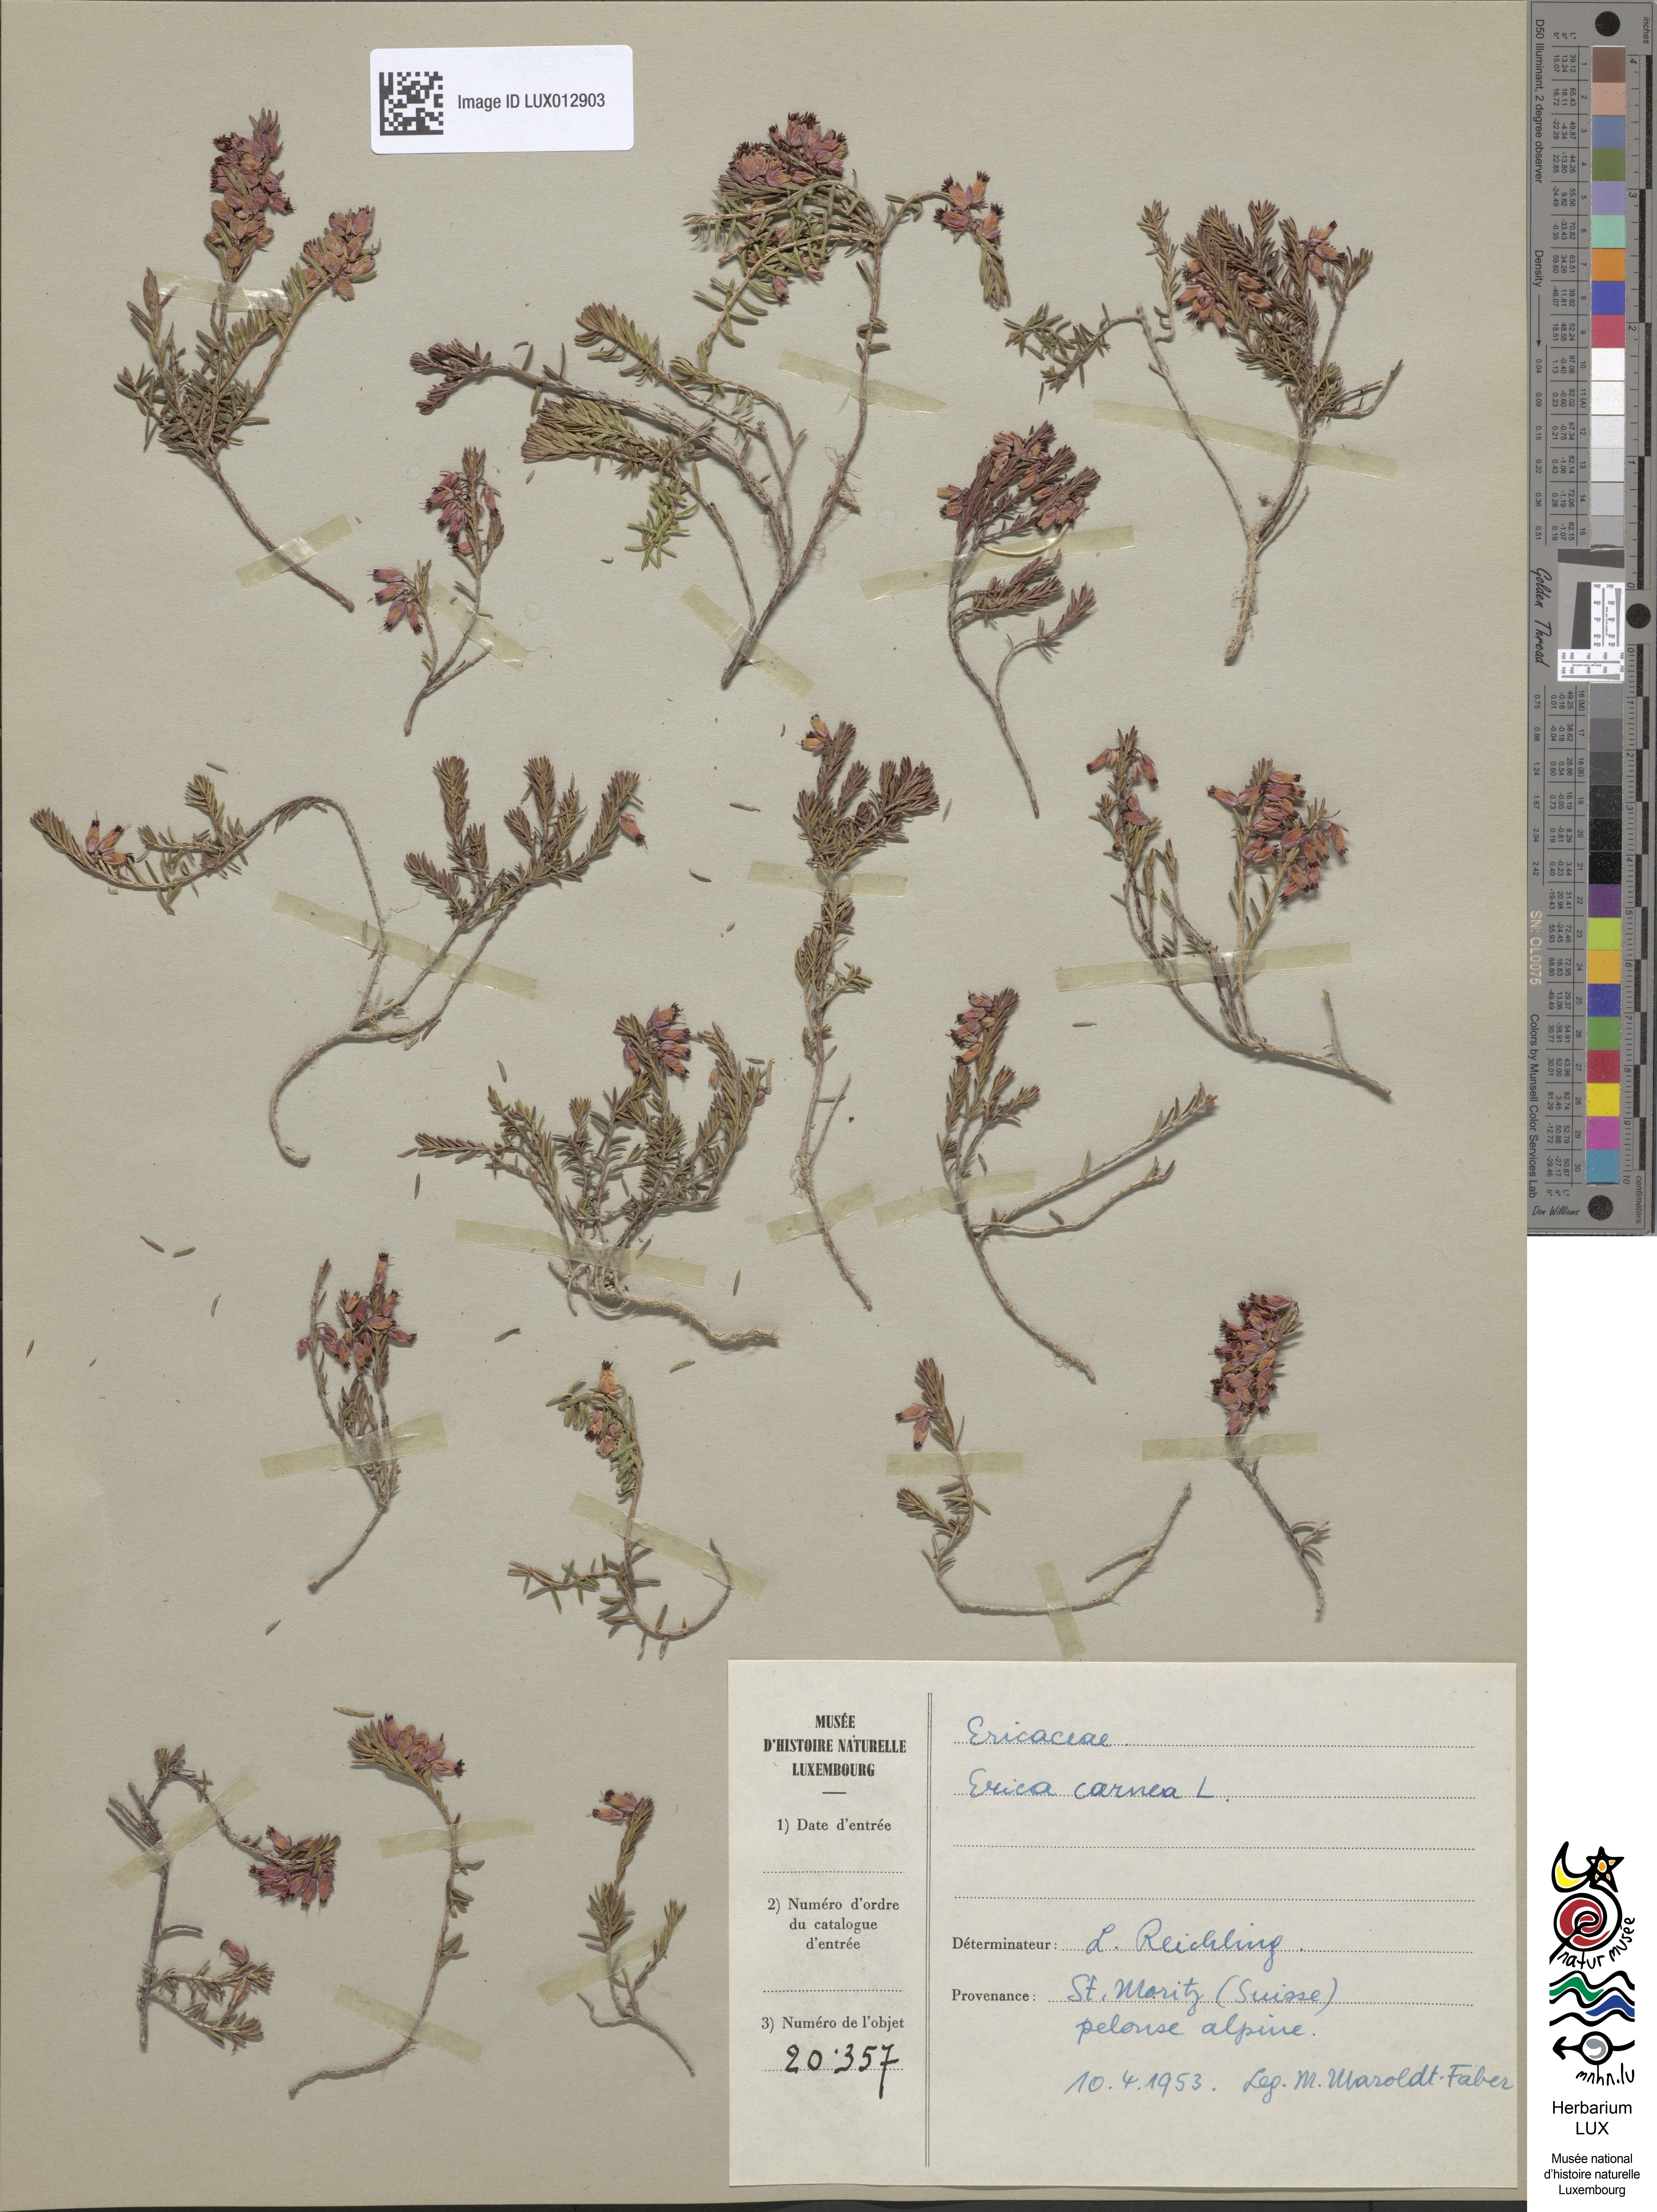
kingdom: Plantae
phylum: Tracheophyta
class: Magnoliopsida
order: Ericales
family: Ericaceae
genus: Erica
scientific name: Erica carnea
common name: Winter heath
